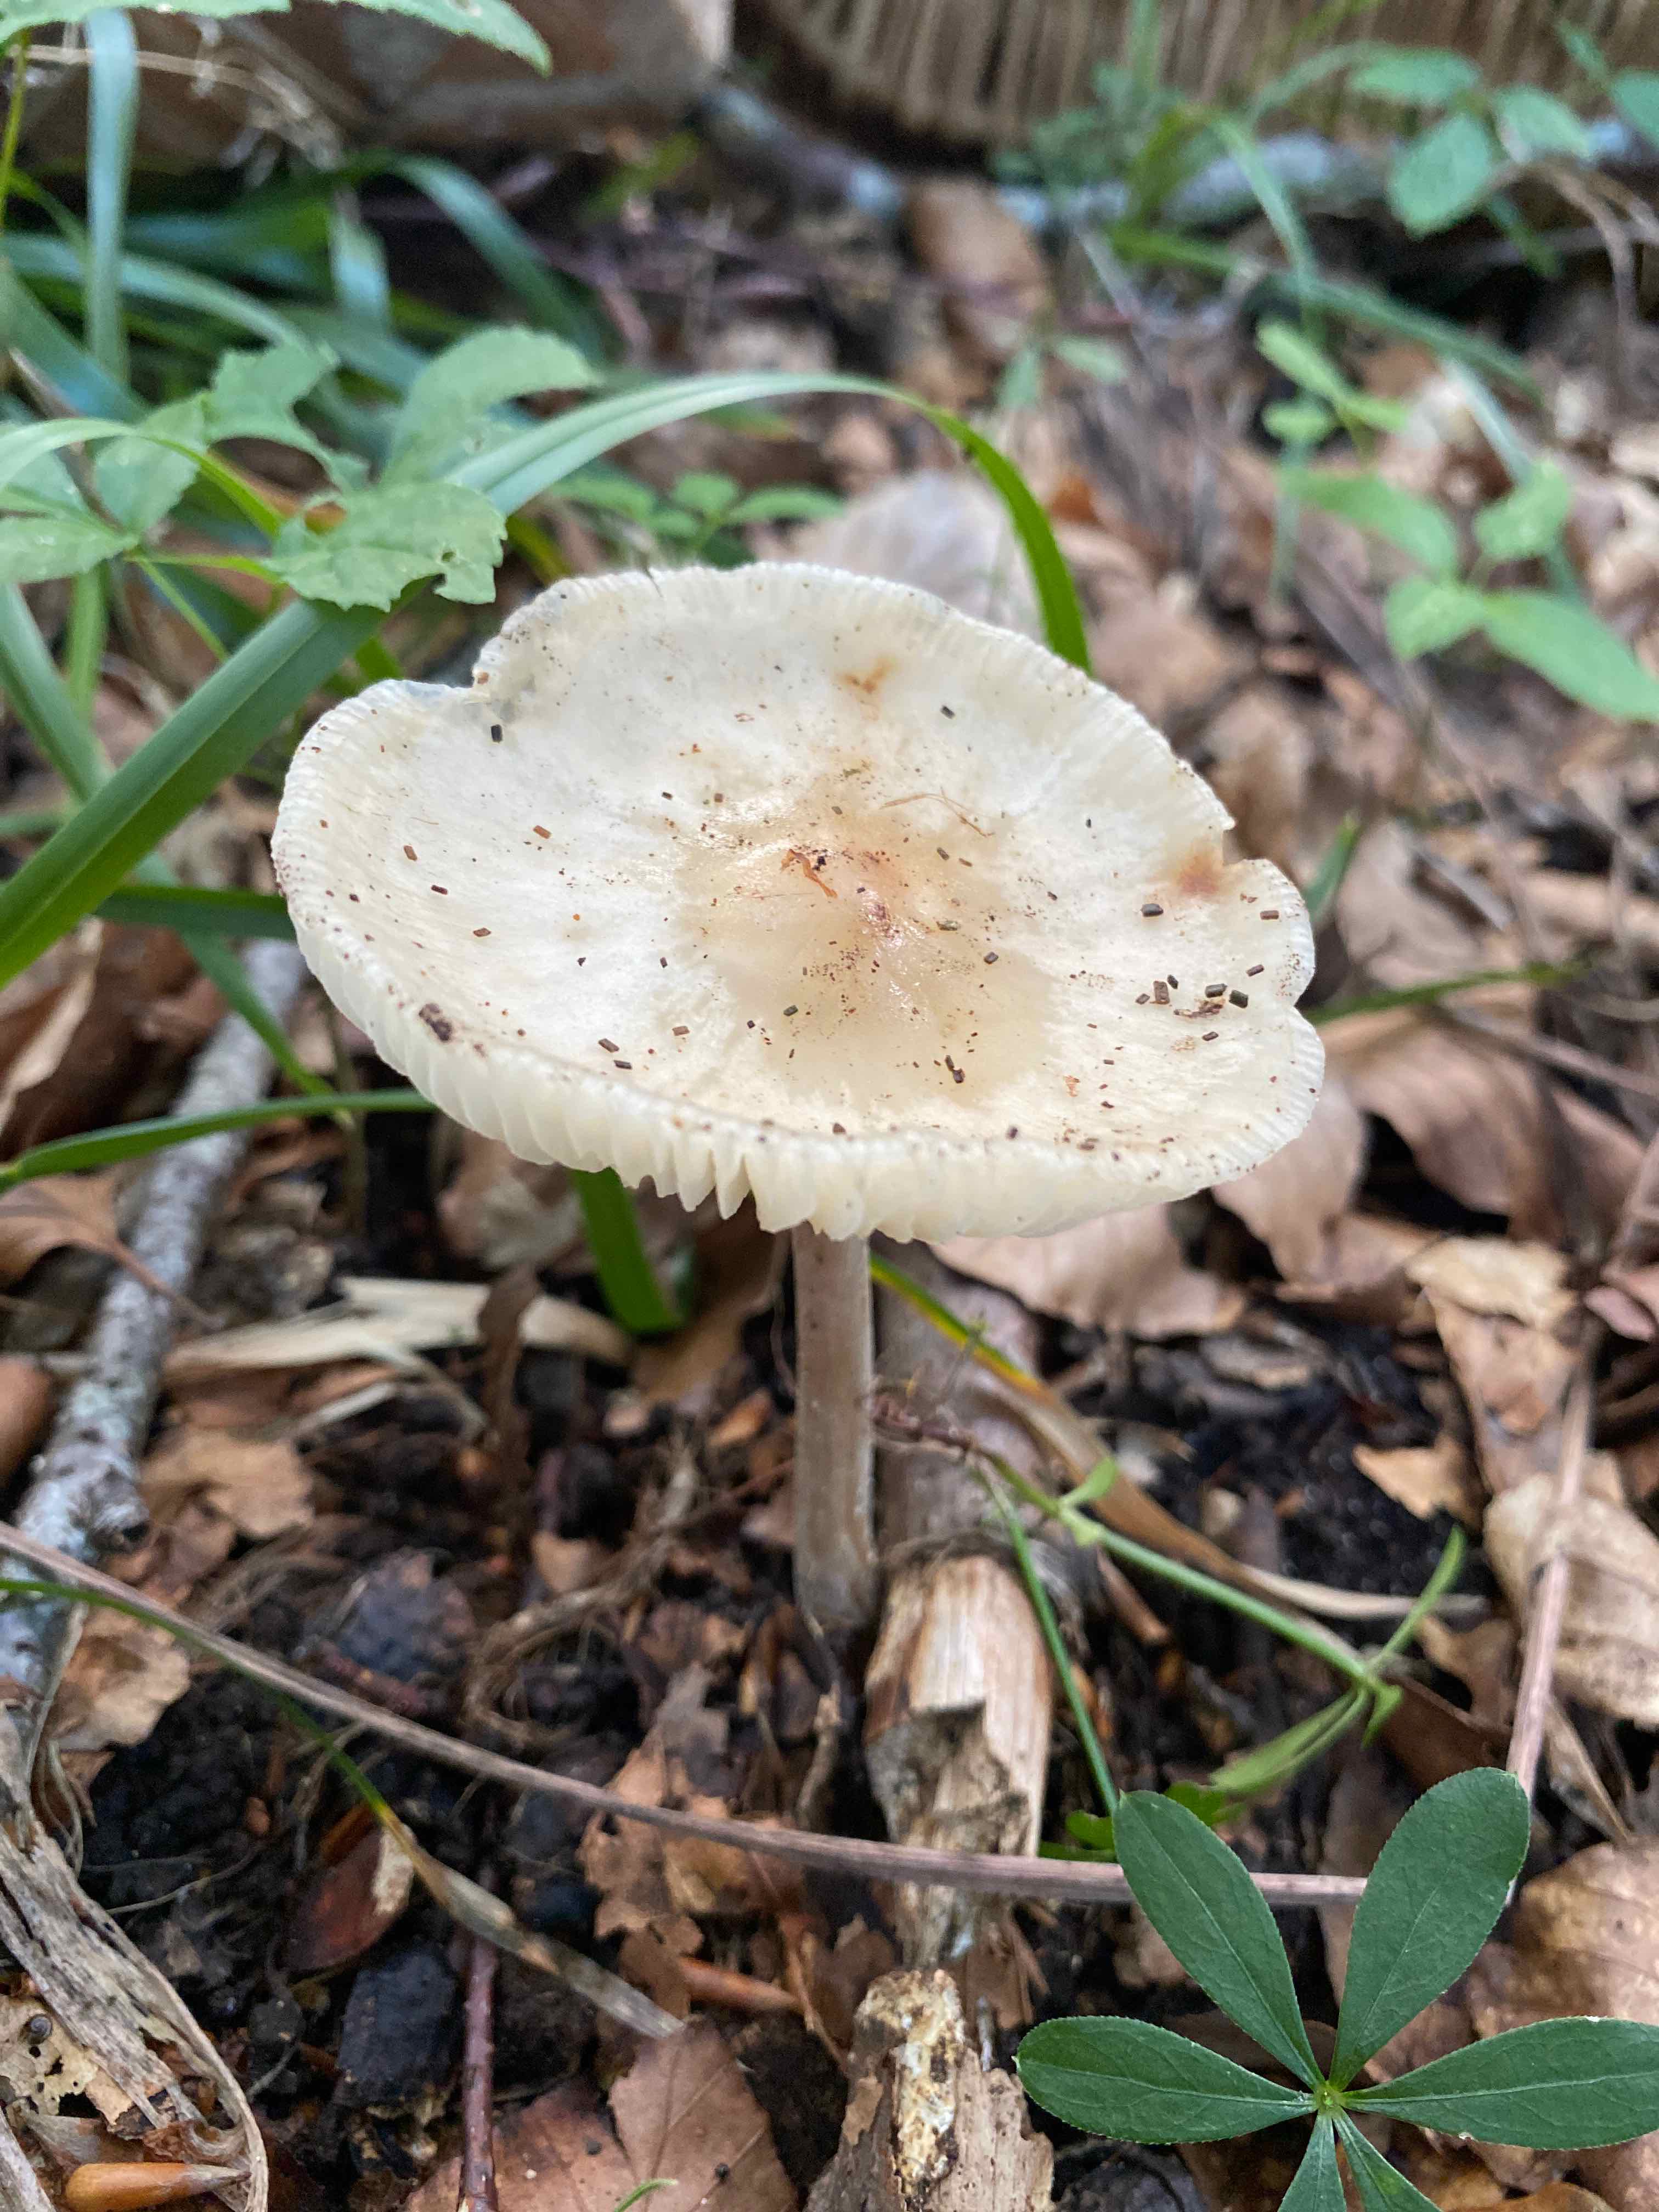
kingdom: Fungi
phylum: Basidiomycota
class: Agaricomycetes
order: Agaricales
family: Physalacriaceae
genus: Hymenopellis
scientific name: Hymenopellis radicata
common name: almindelig pælerodshat
